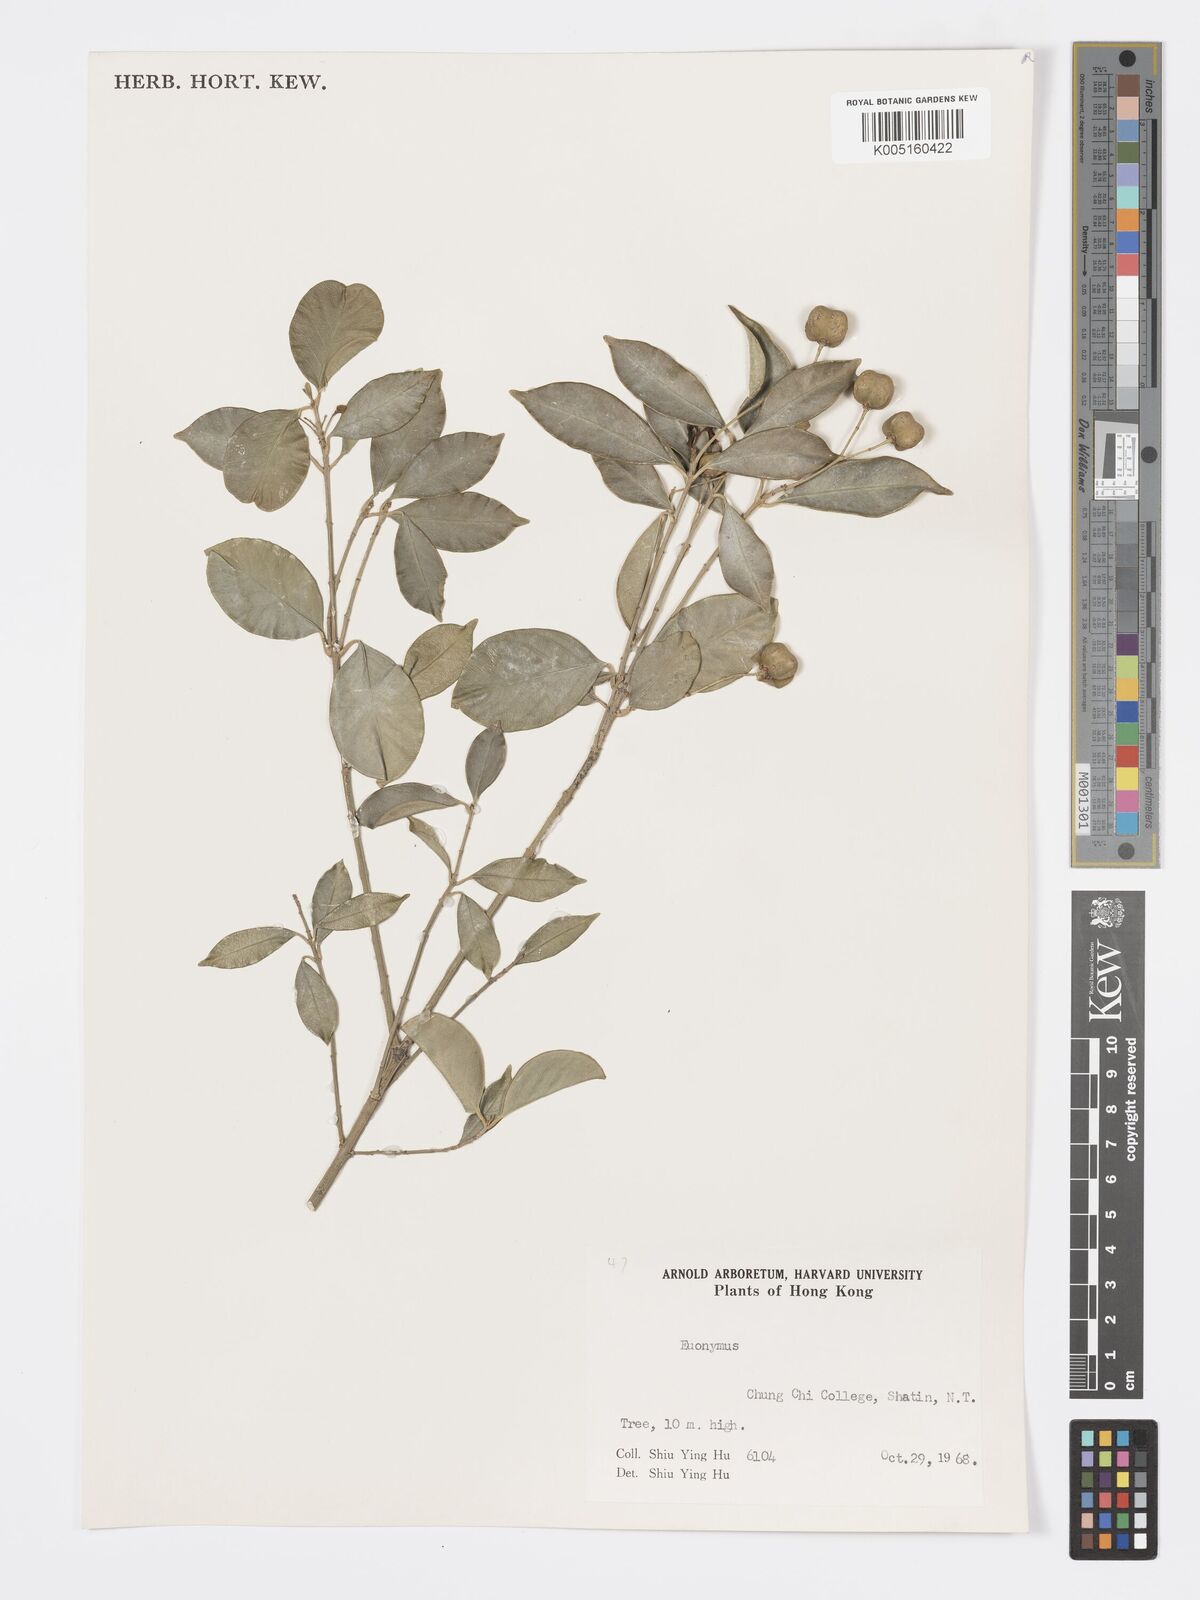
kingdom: Plantae
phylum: Tracheophyta
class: Magnoliopsida
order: Celastrales
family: Celastraceae
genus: Euonymus
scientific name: Euonymus
